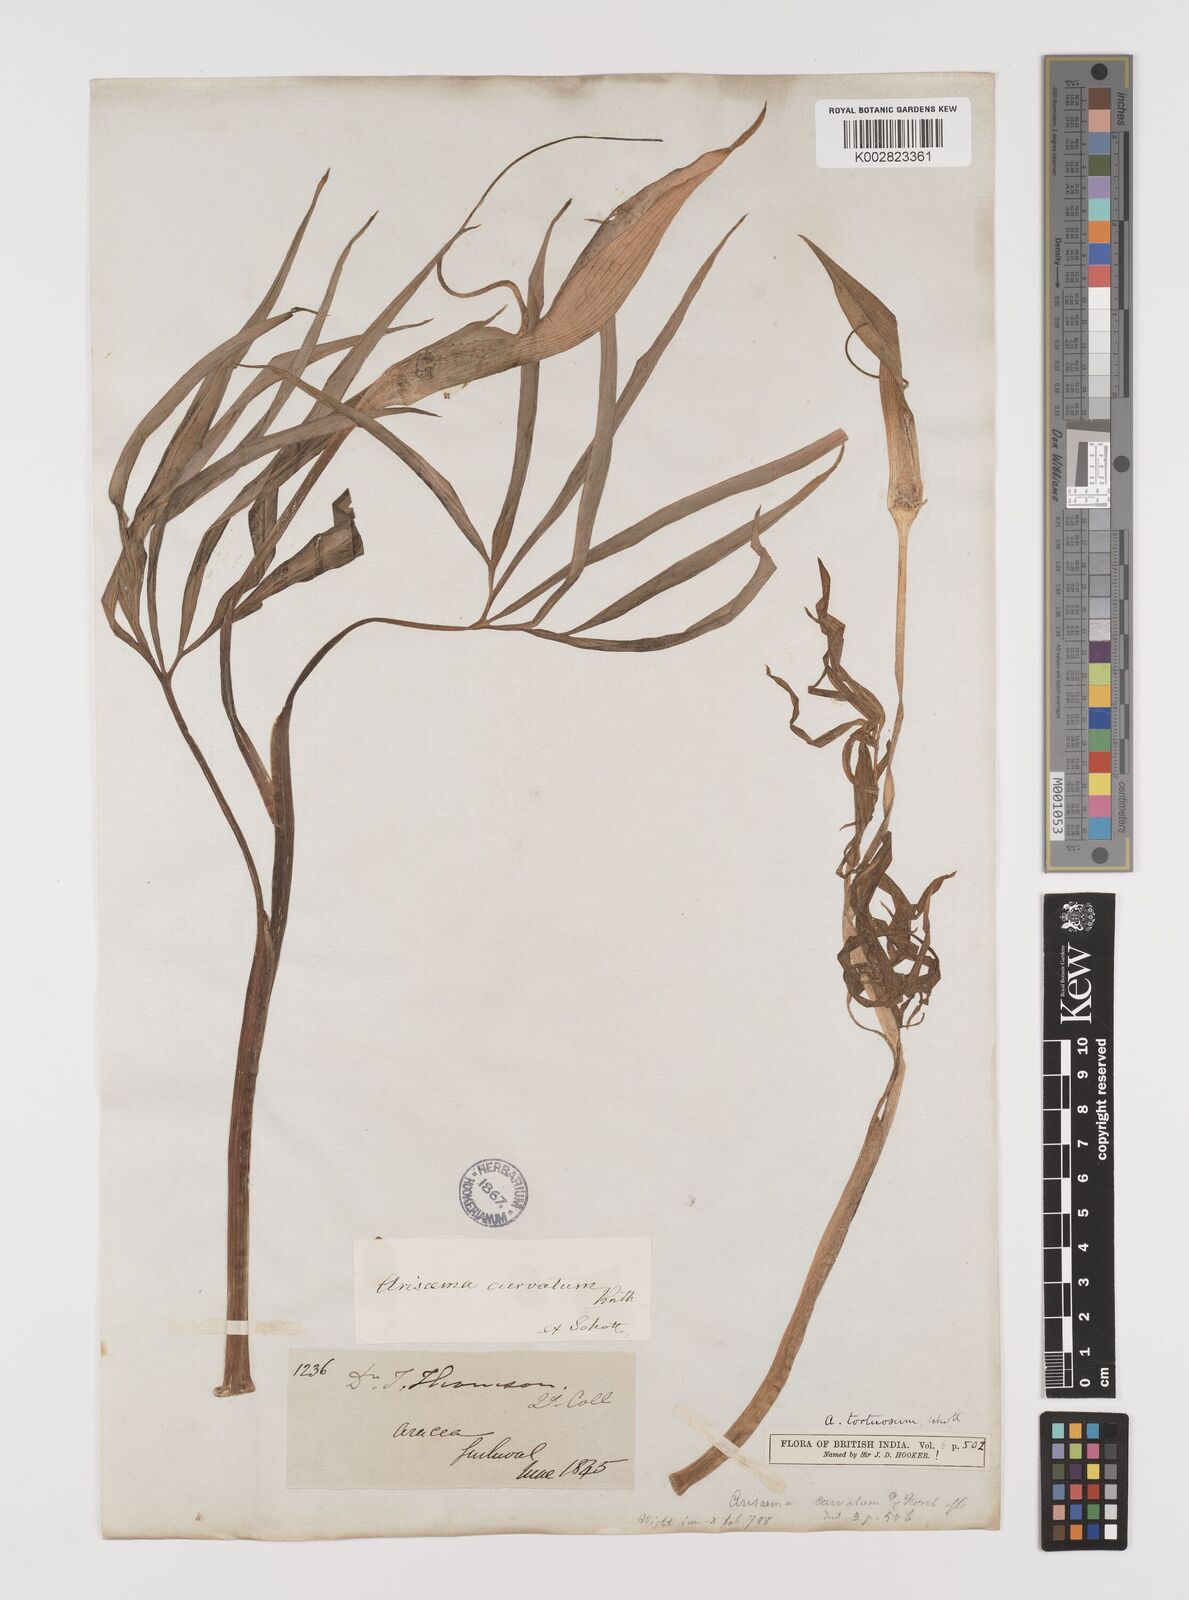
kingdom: Plantae
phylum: Tracheophyta
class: Liliopsida
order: Alismatales
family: Araceae
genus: Arisaema
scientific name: Arisaema tortuosum
